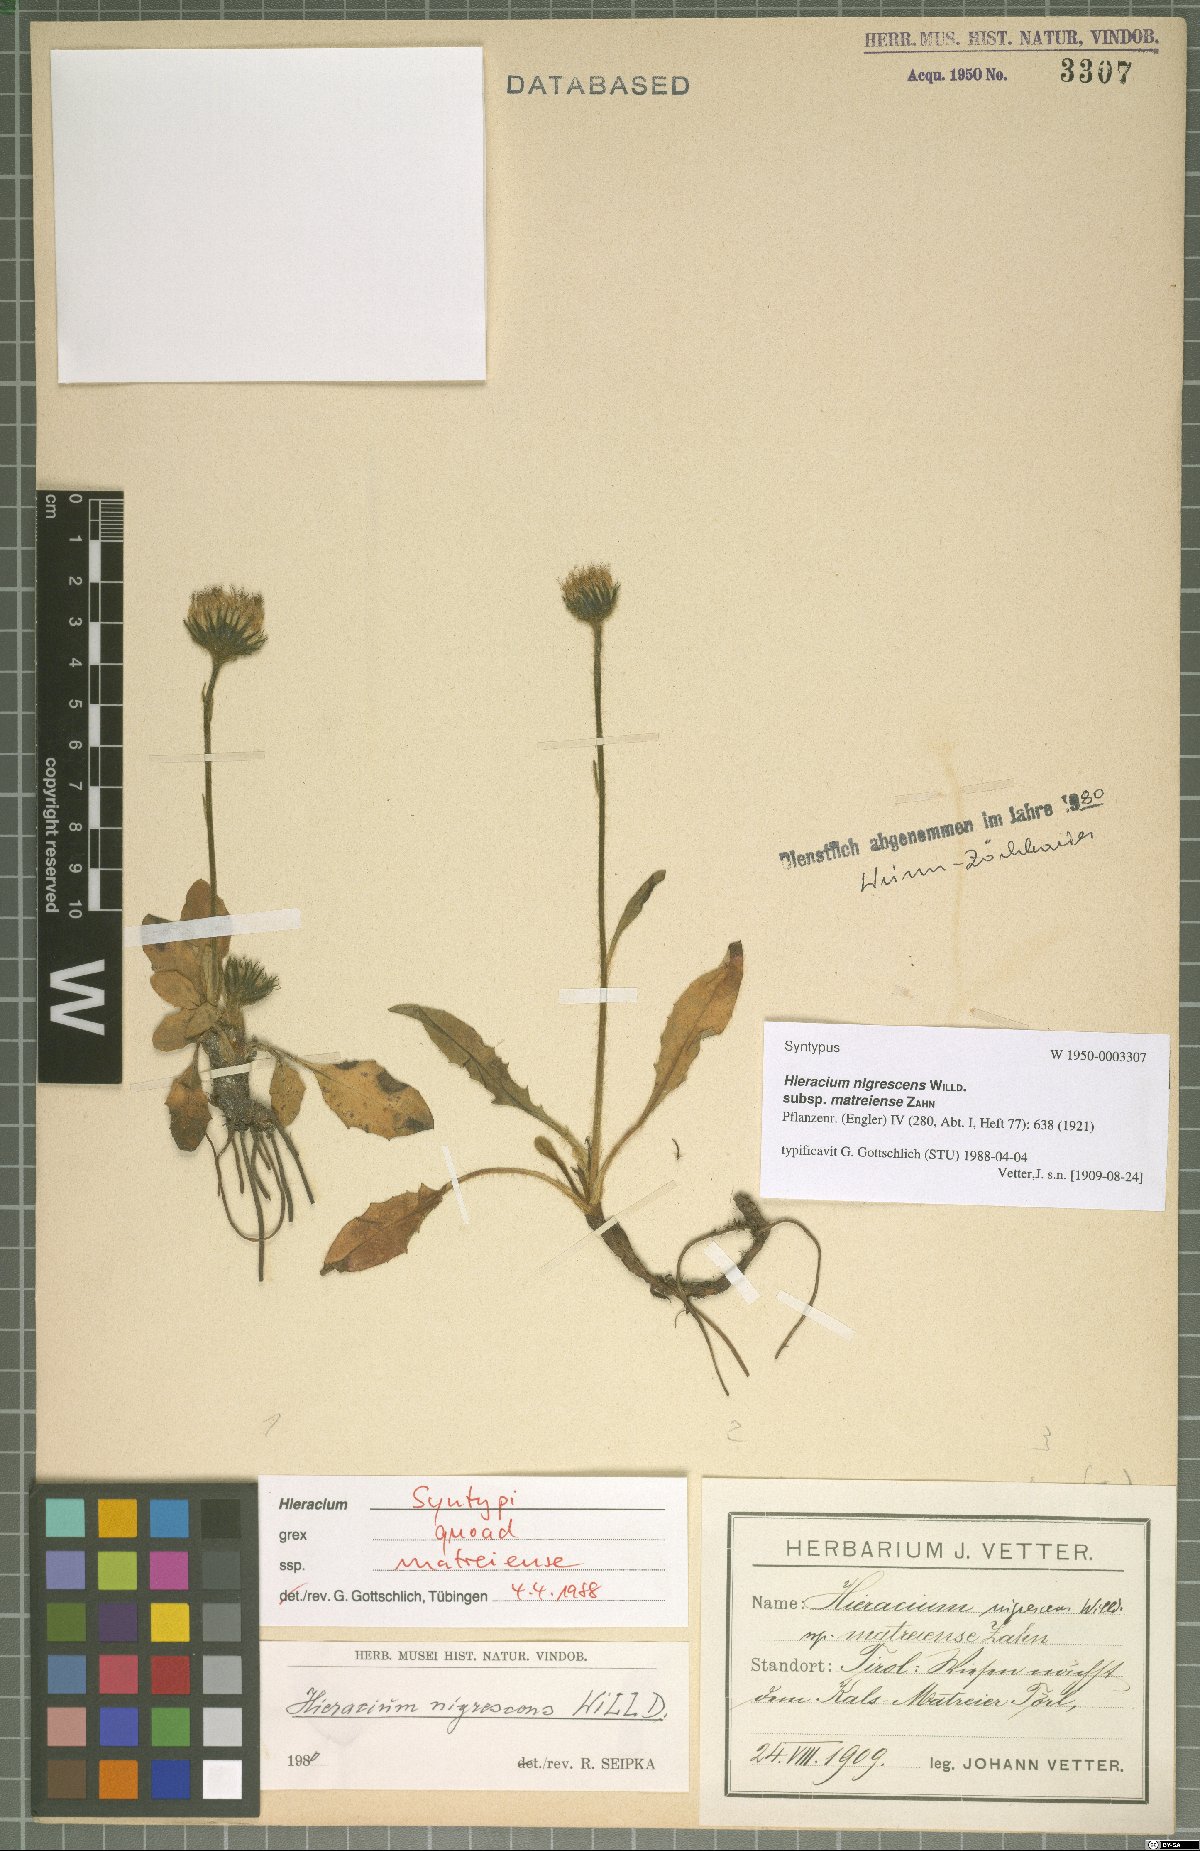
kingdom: Plantae
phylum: Tracheophyta
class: Magnoliopsida
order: Asterales
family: Asteraceae
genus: Hieracium
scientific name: Hieracium nigrescens
